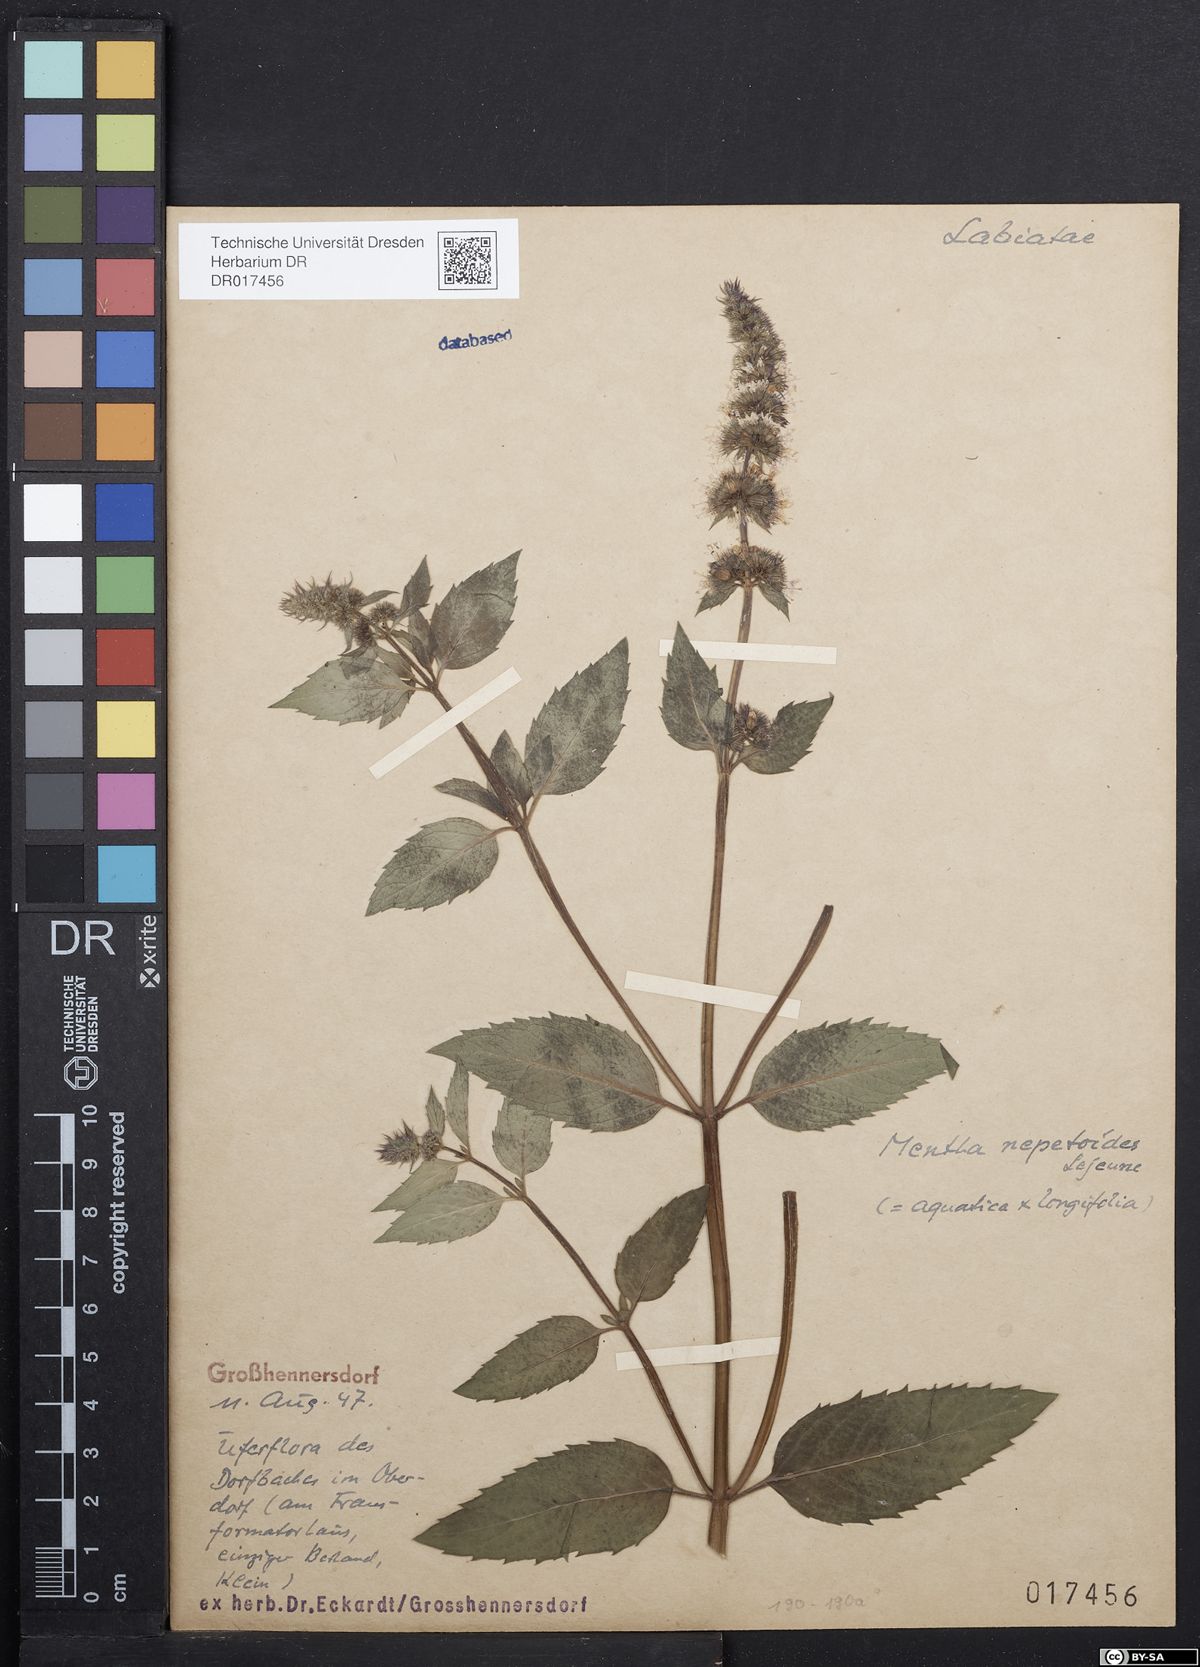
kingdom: Plantae
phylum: Tracheophyta
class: Magnoliopsida
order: Lamiales
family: Lamiaceae
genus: Mentha
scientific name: Mentha piperita
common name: Peppermint
